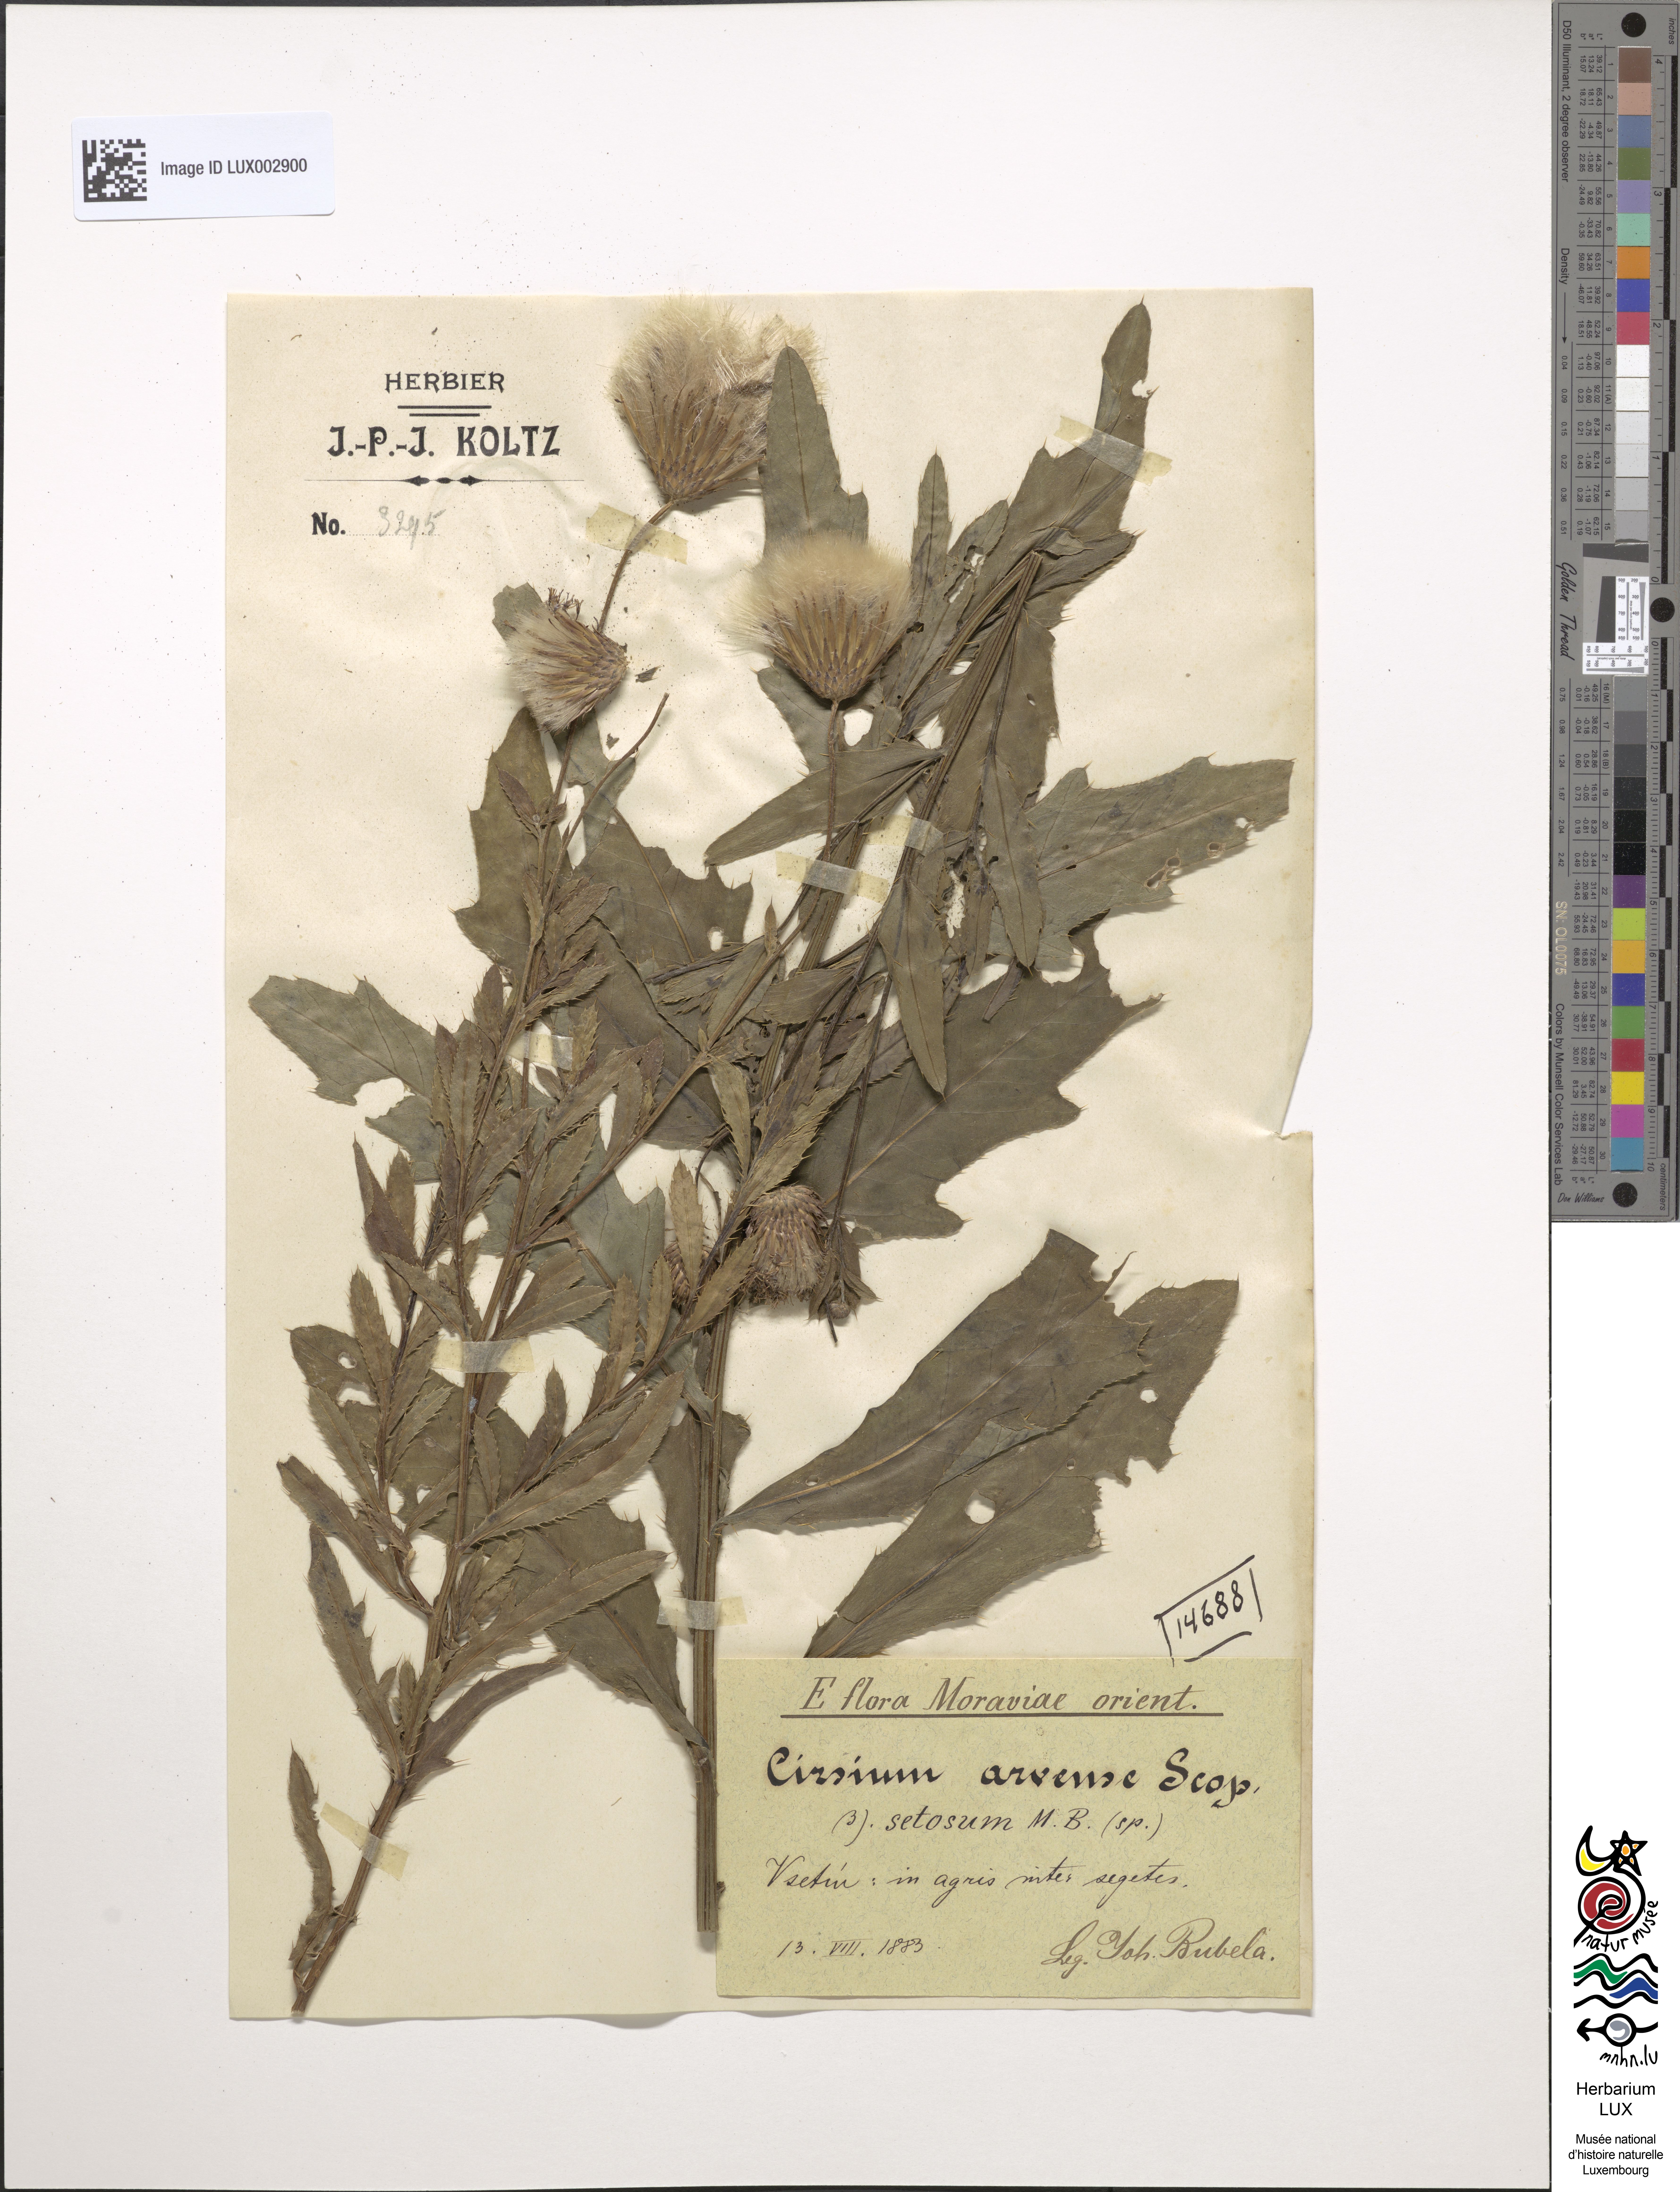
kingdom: Plantae
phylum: Tracheophyta
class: Magnoliopsida
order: Asterales
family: Asteraceae
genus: Cirsium
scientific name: Cirsium arvense
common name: Creeping thistle
